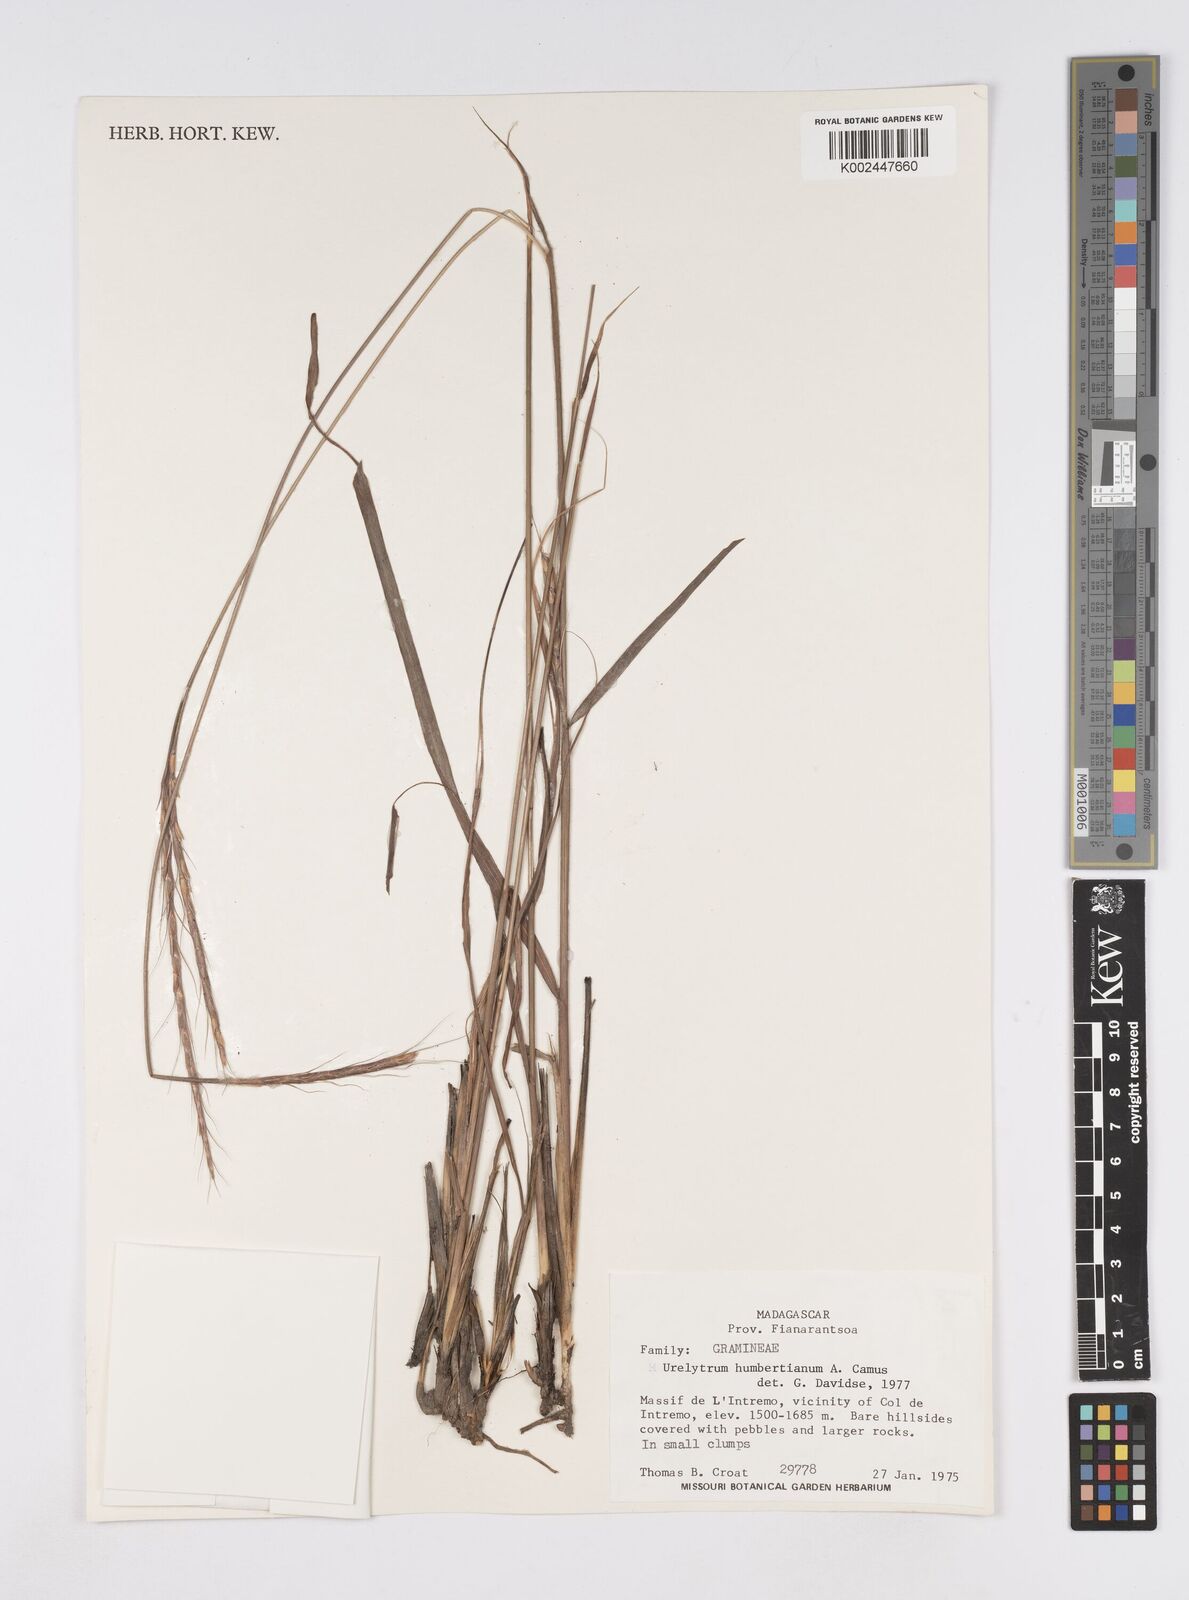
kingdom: Plantae
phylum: Tracheophyta
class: Liliopsida
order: Poales
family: Poaceae
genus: Urelytrum
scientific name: Urelytrum agropyroides
